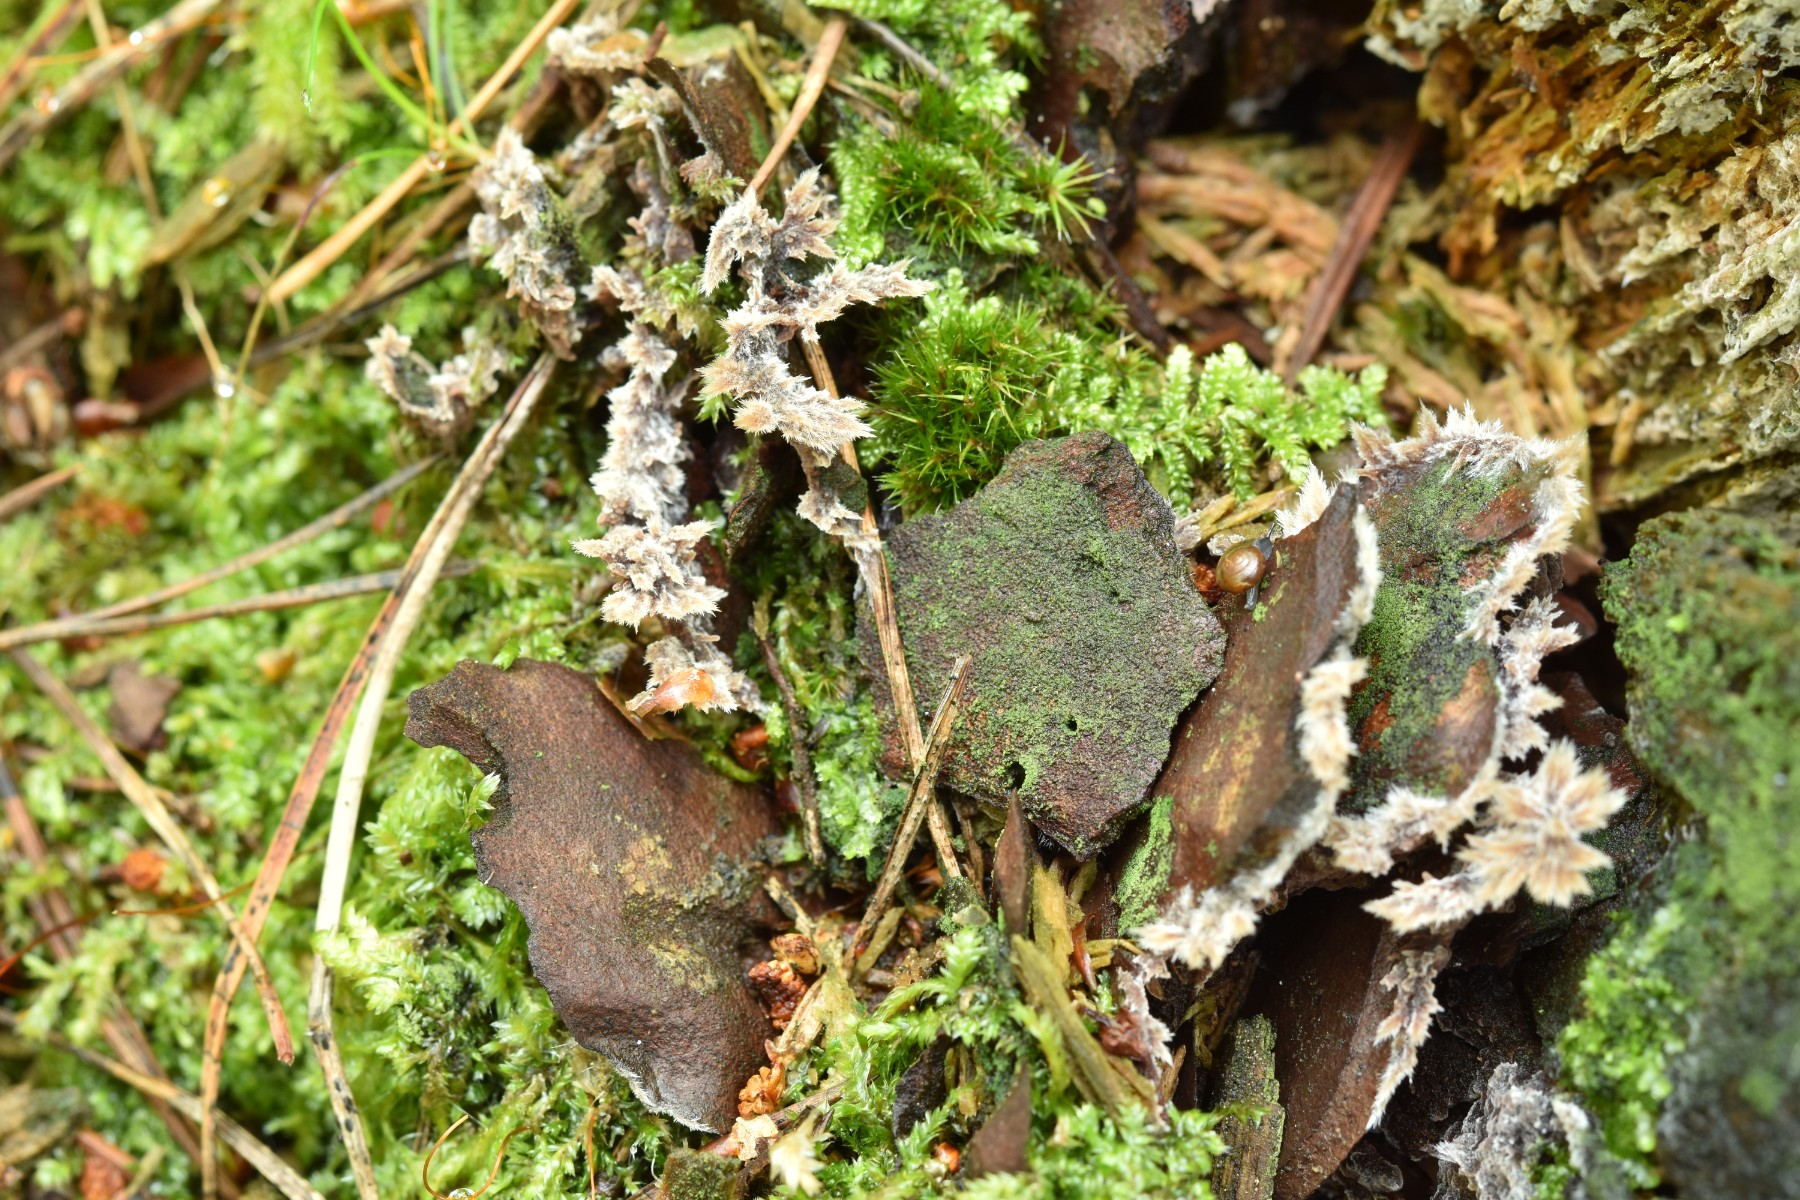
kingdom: Fungi
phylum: Basidiomycota
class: Agaricomycetes
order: Thelephorales
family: Thelephoraceae
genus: Thelephora
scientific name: Thelephora terrestris
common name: fliget frynsesvamp
